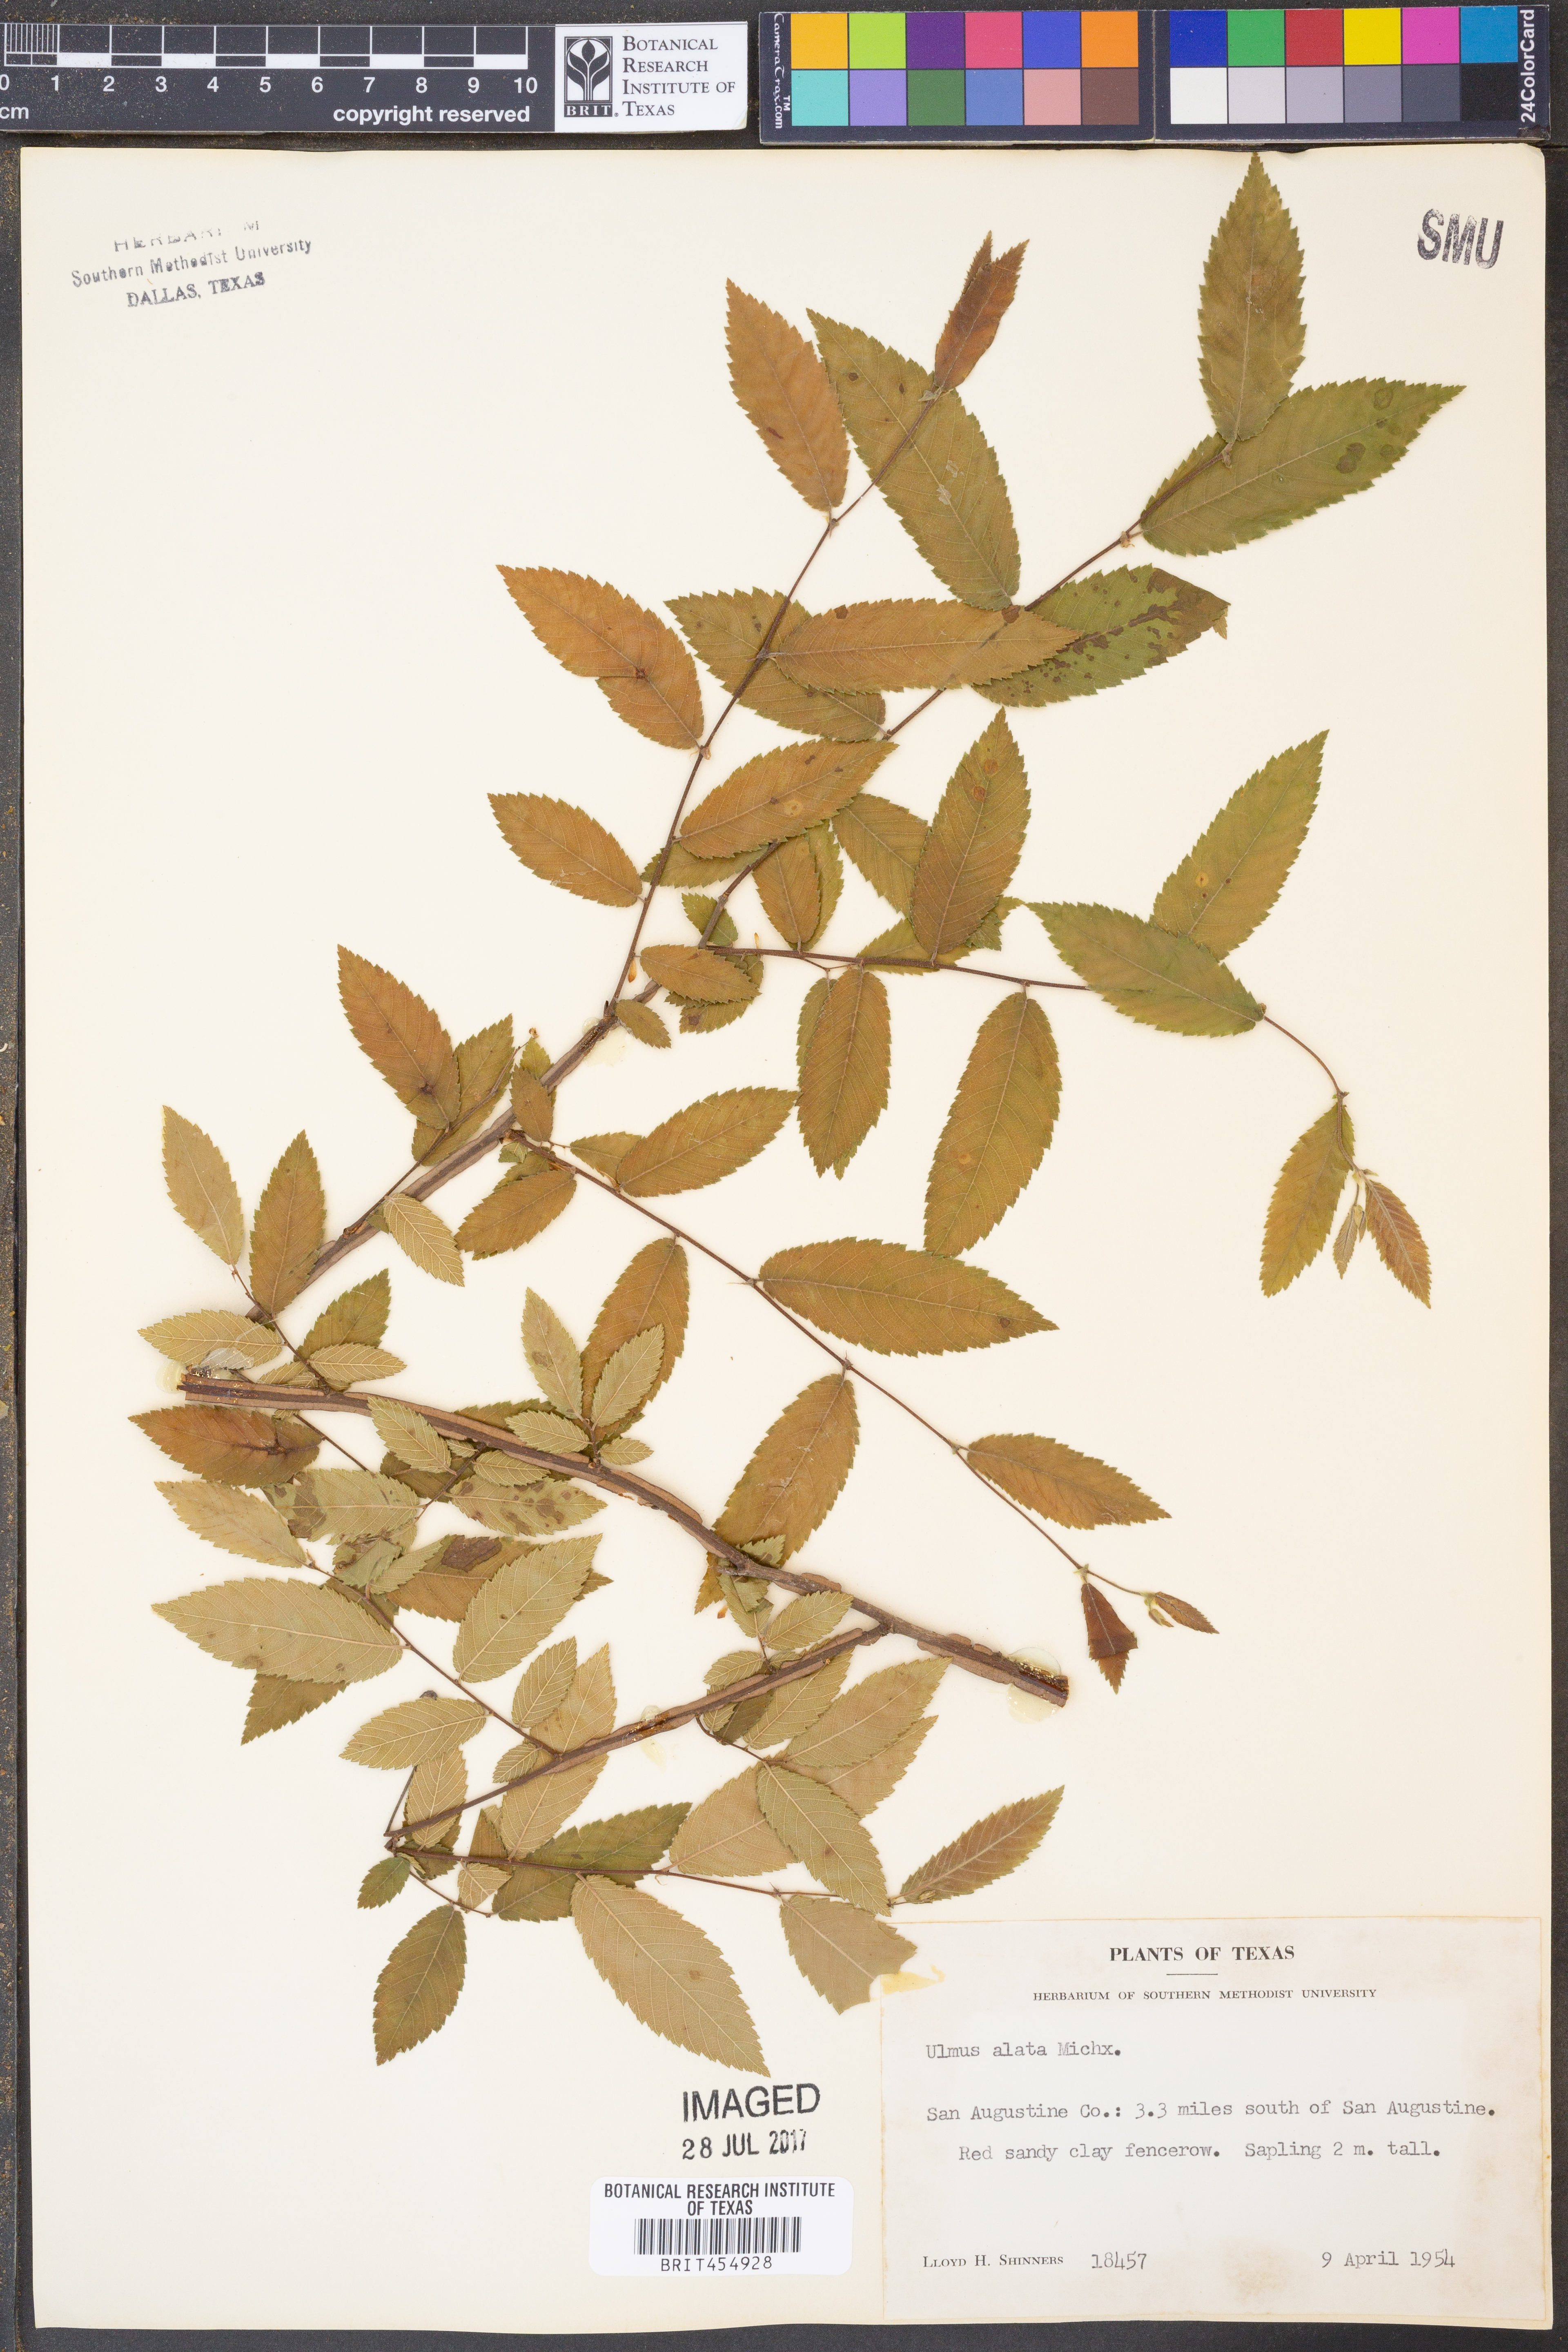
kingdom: Plantae
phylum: Tracheophyta
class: Magnoliopsida
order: Rosales
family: Ulmaceae
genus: Ulmus
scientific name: Ulmus alata
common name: Winged elm
